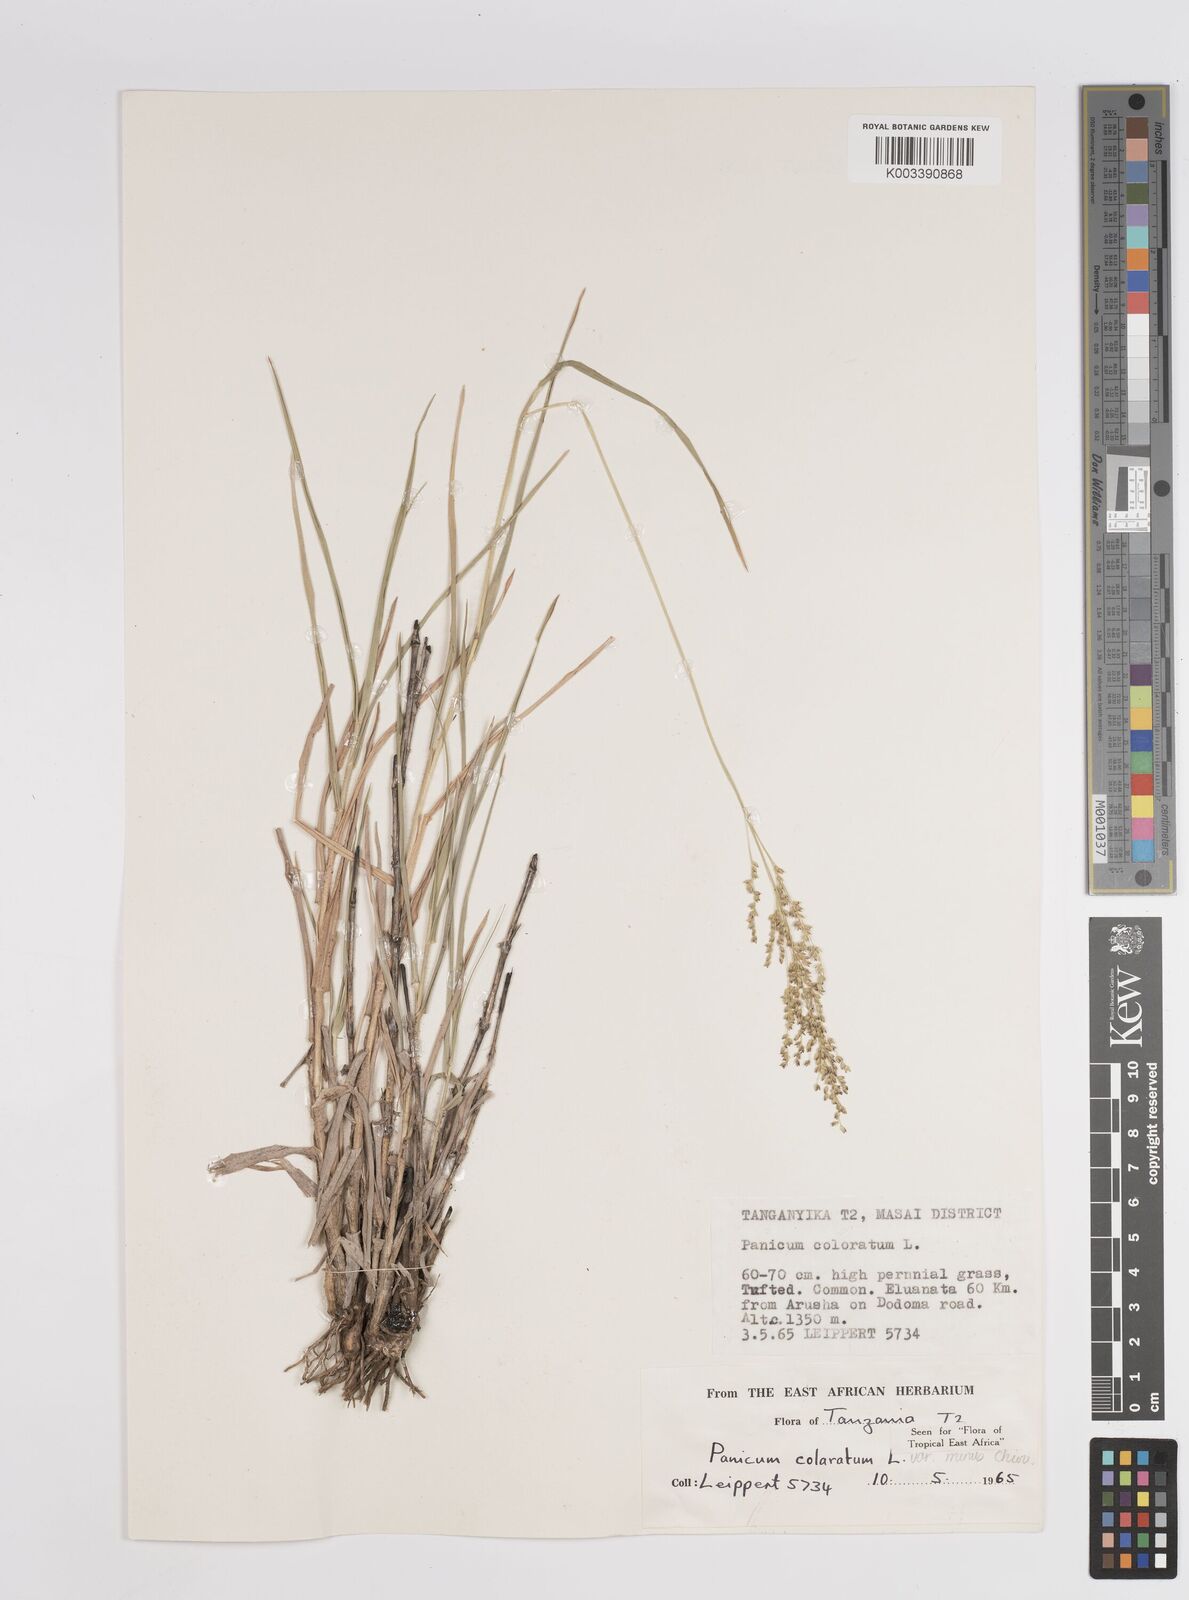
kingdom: Plantae
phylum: Tracheophyta
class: Liliopsida
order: Poales
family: Poaceae
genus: Panicum
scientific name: Panicum coloratum
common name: Kleingrass
